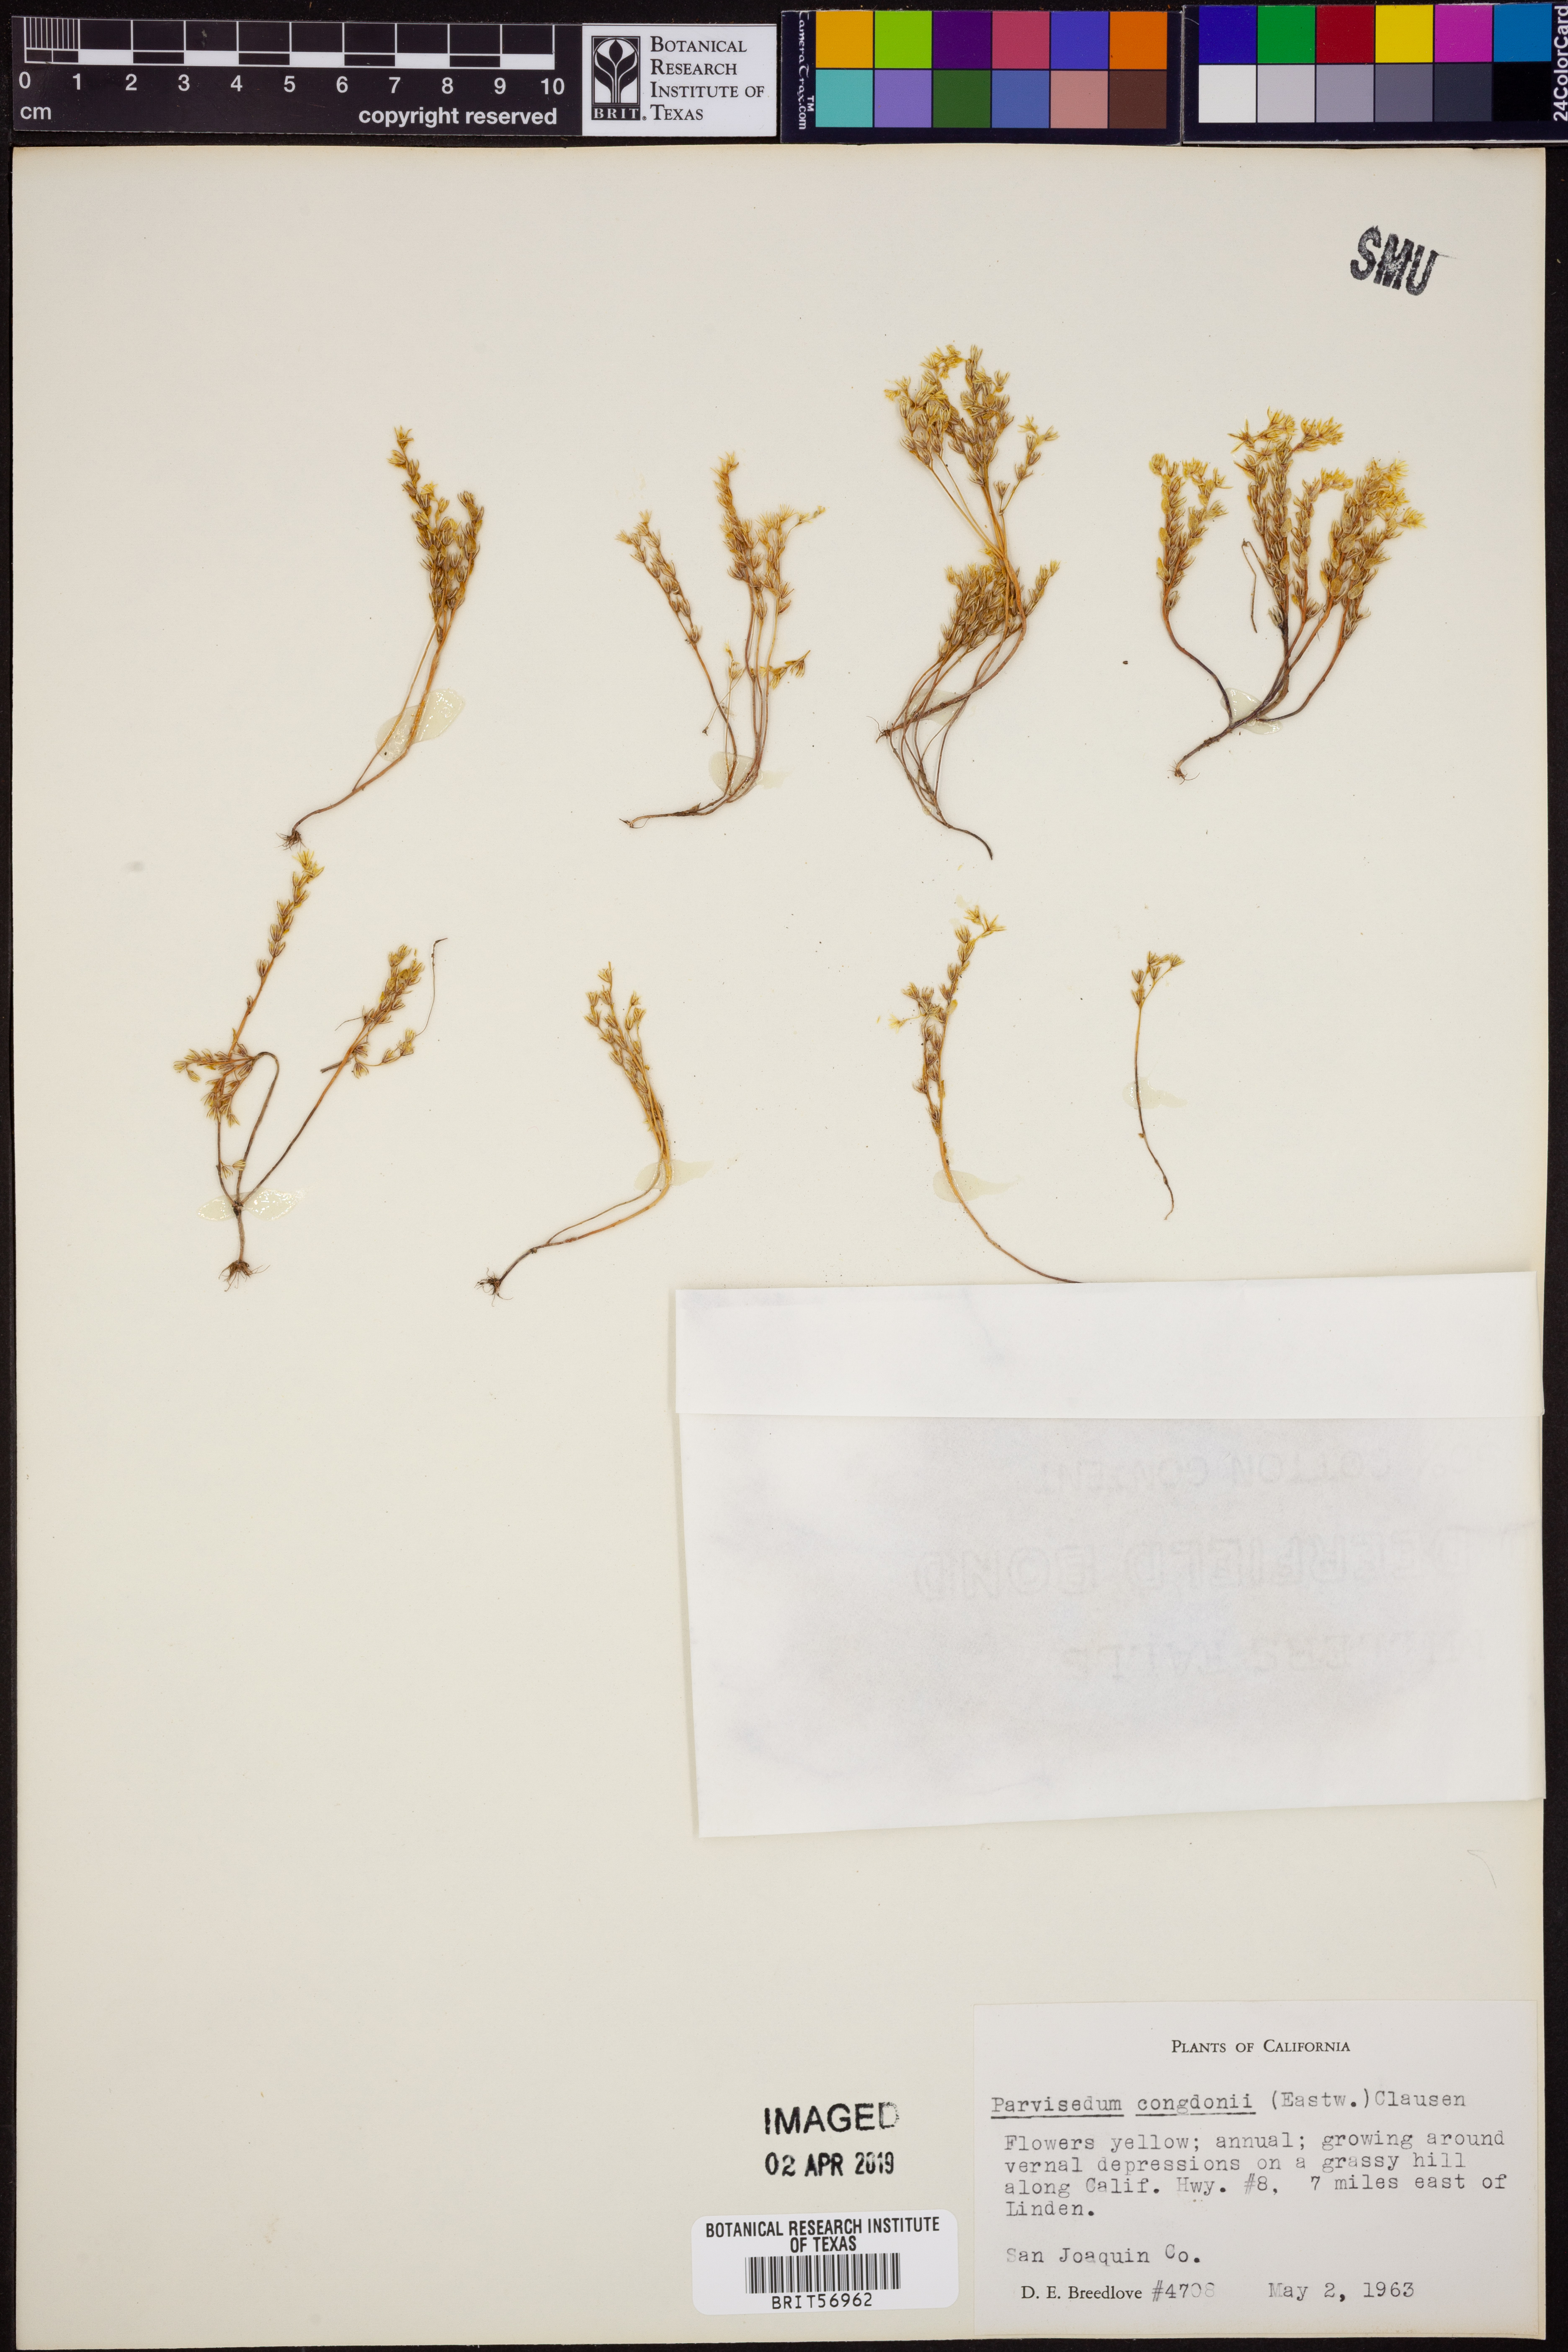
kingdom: Plantae
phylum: Tracheophyta
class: Magnoliopsida
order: Saxifragales
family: Crassulaceae
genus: Sedella
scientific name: Sedella congdonii
